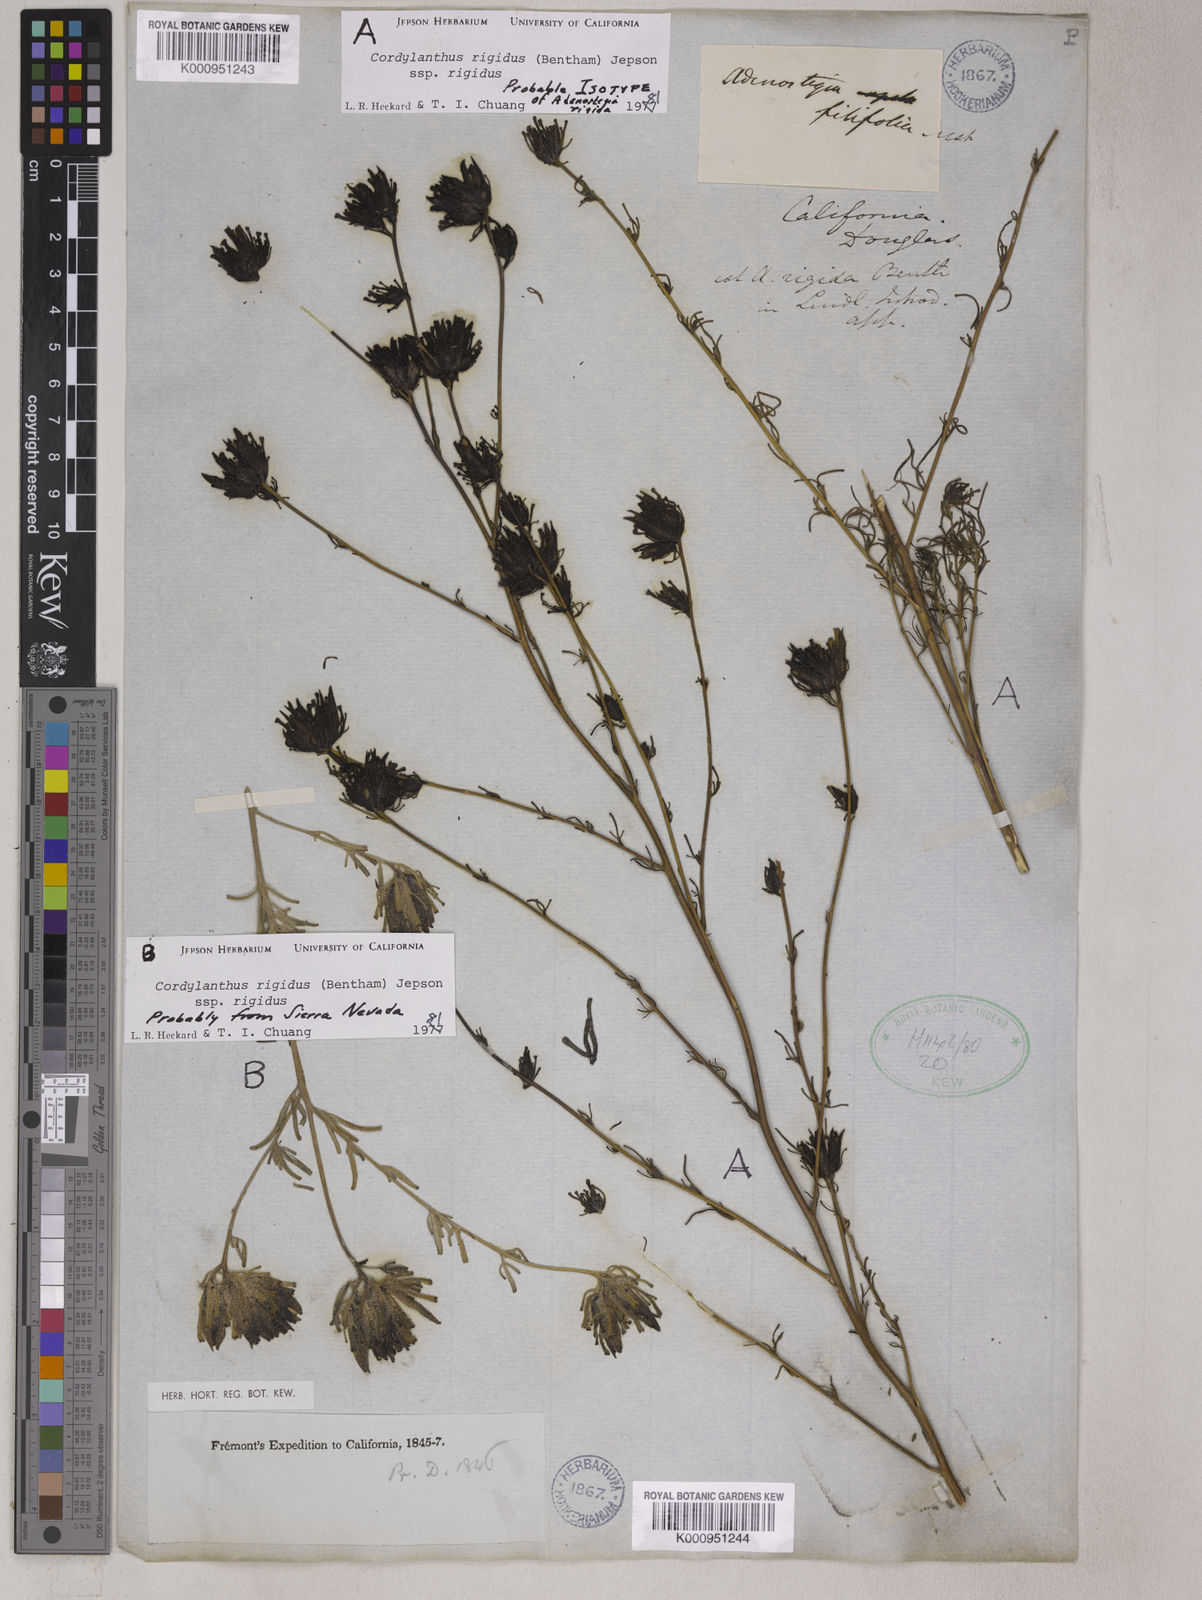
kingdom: Plantae
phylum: Tracheophyta
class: Magnoliopsida
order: Lamiales
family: Orobanchaceae
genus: Cordylanthus
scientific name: Cordylanthus rigidus
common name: Stiff-branch bird's-beak
